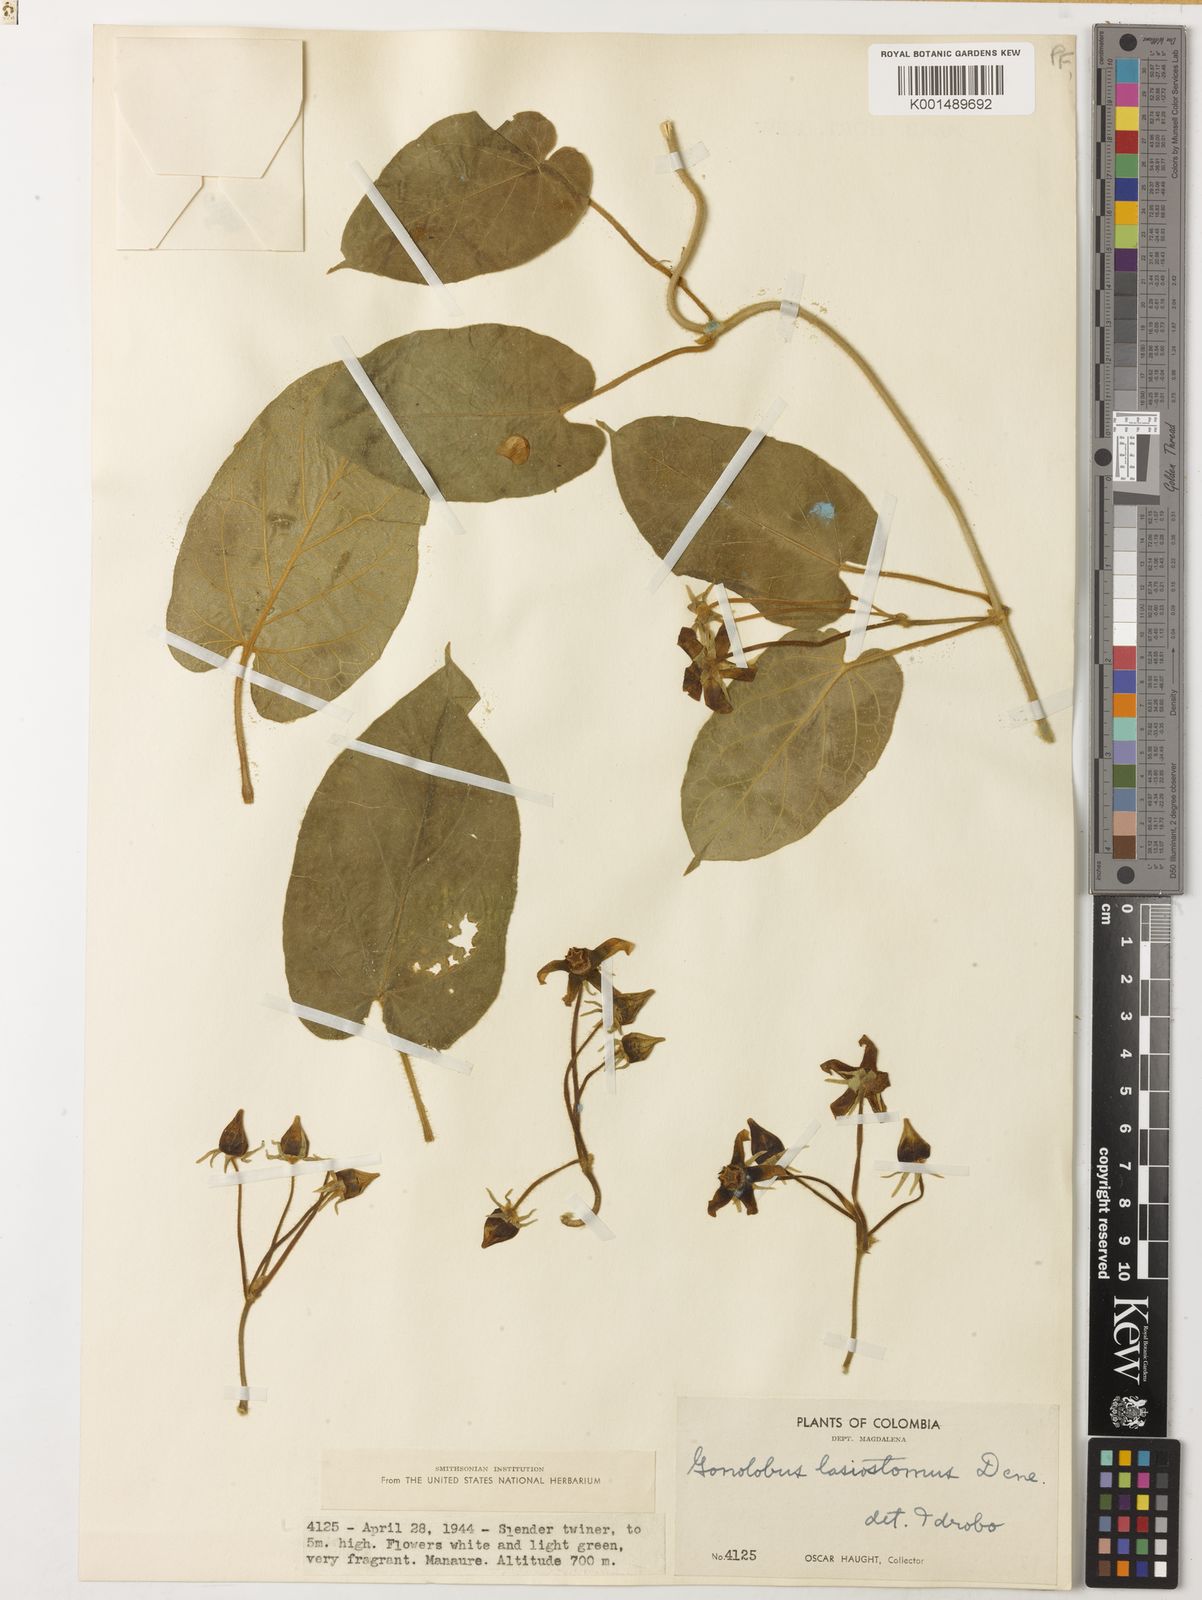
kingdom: Plantae
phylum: Tracheophyta
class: Magnoliopsida
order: Gentianales
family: Apocynaceae
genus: Gonolobus
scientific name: Gonolobus lasiostomus
